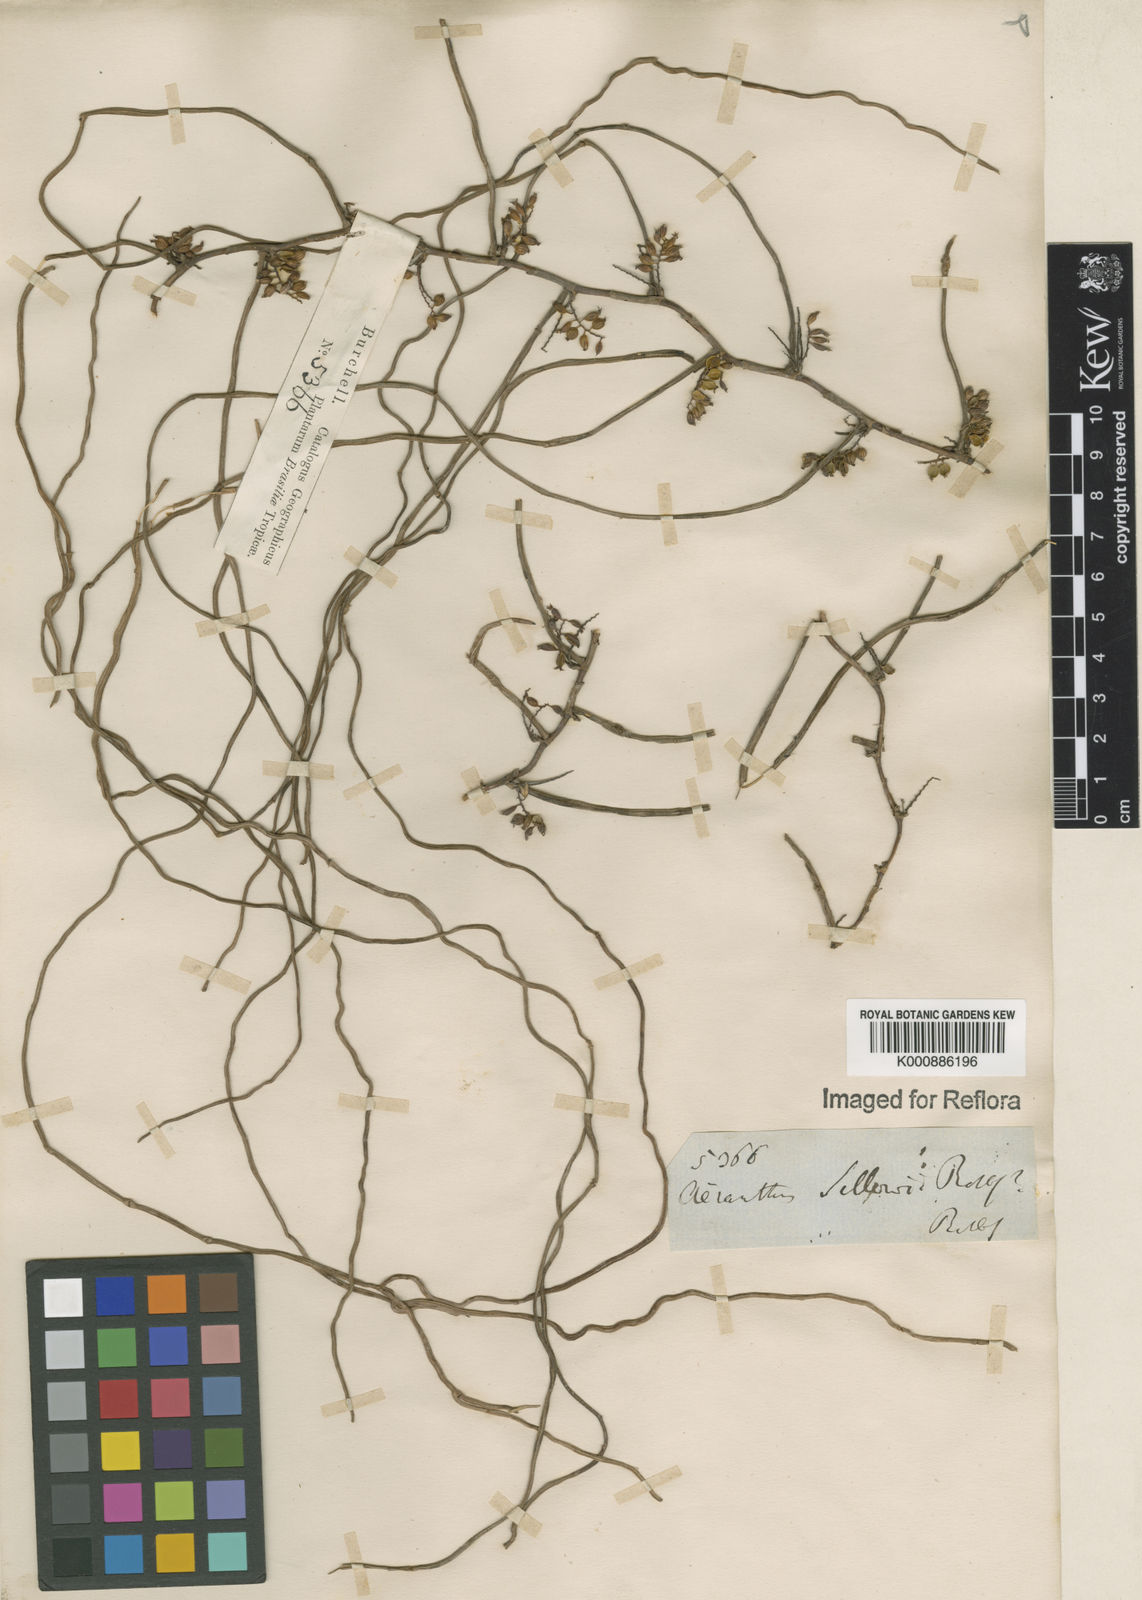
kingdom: Plantae
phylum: Tracheophyta
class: Liliopsida
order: Asparagales
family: Orchidaceae
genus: Campylocentrum
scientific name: Campylocentrum sellowii
